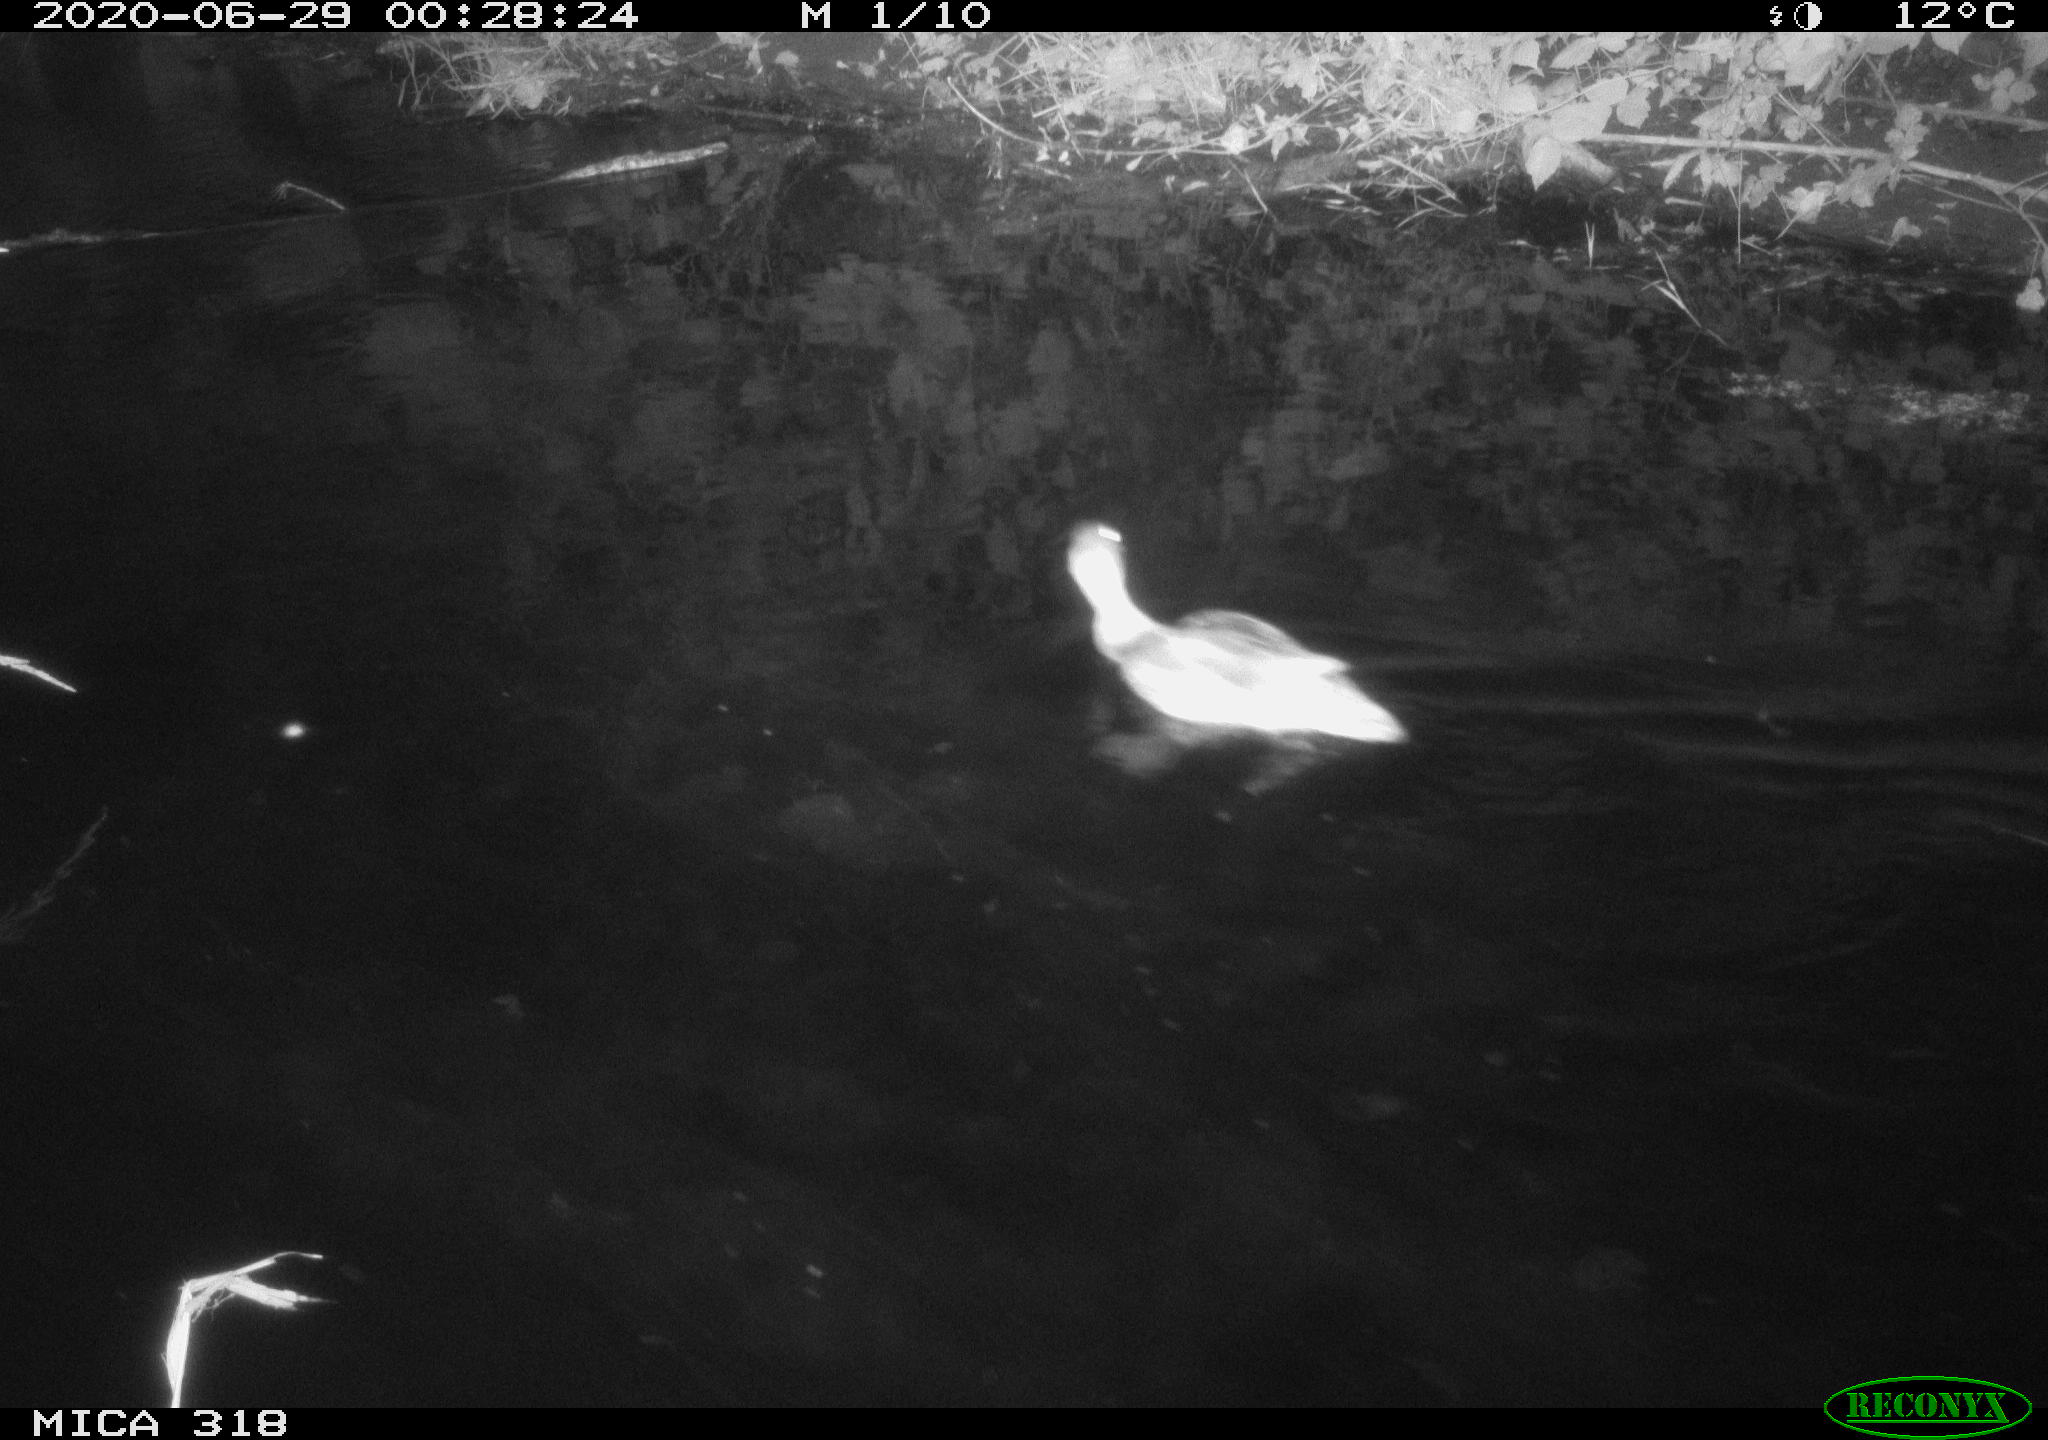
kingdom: Animalia
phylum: Chordata
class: Aves
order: Anseriformes
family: Anatidae
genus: Anas
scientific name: Anas platyrhynchos
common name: Mallard
